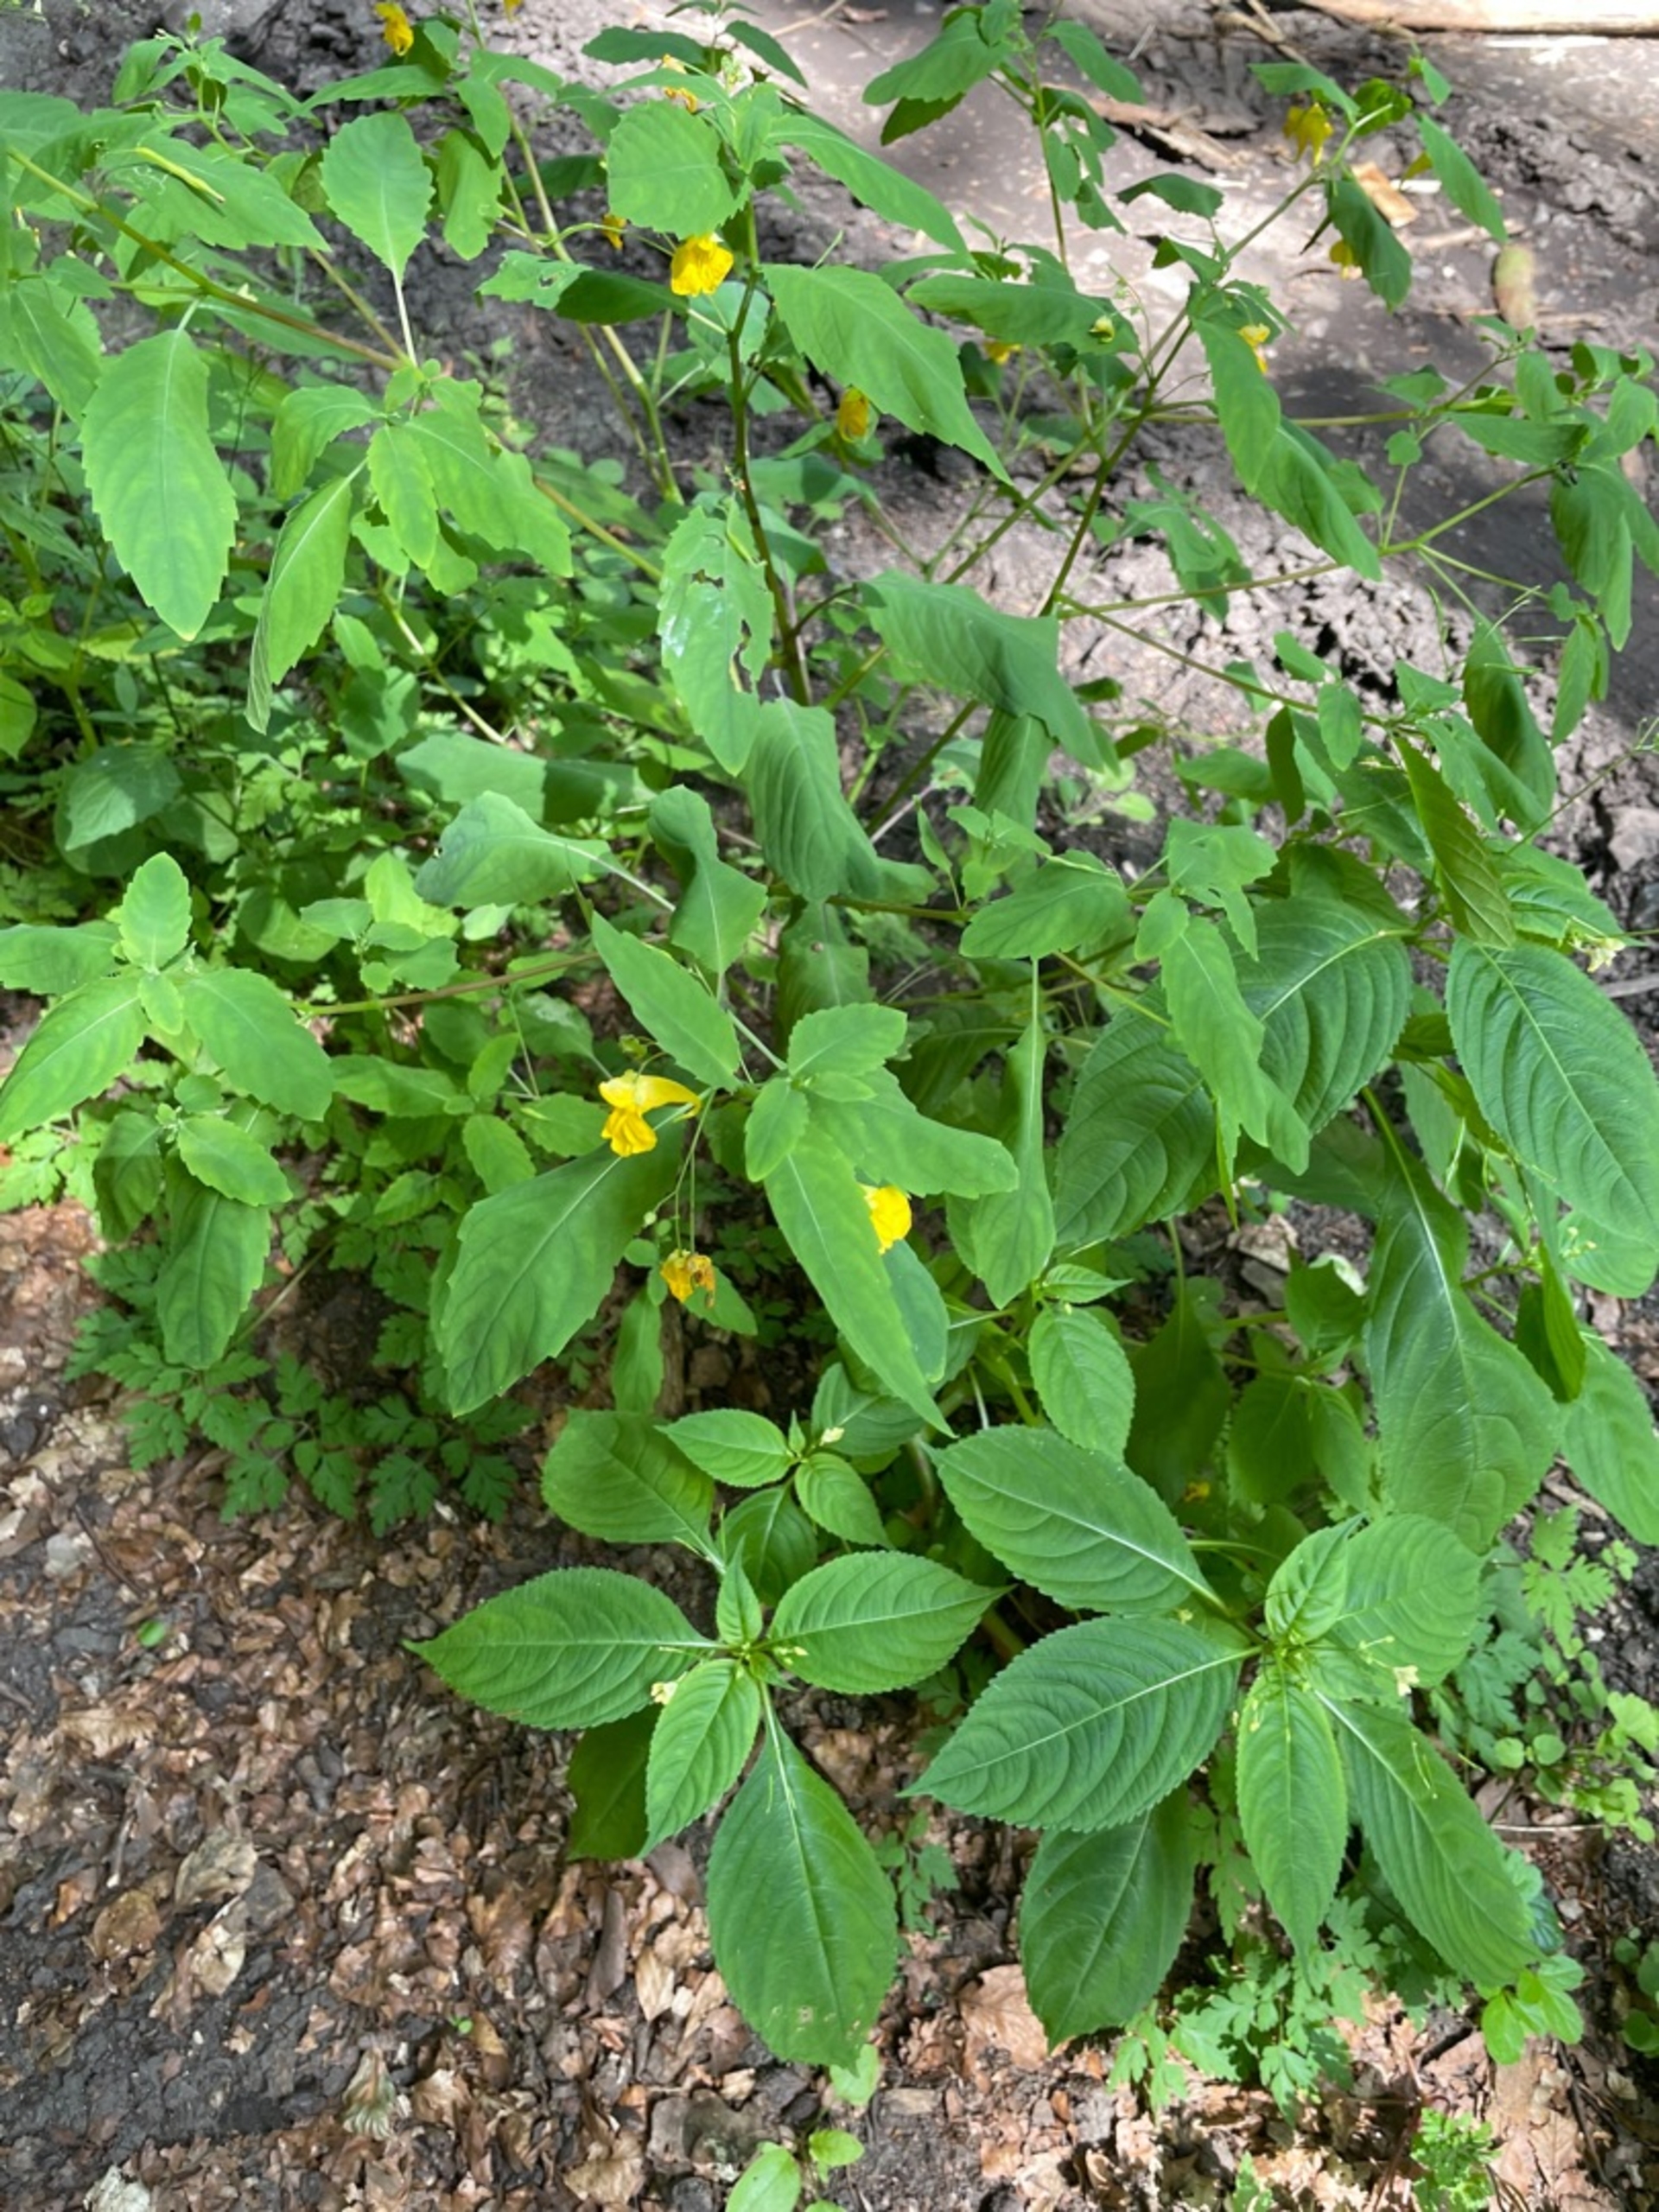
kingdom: Plantae
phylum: Tracheophyta
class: Magnoliopsida
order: Ericales
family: Balsaminaceae
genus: Impatiens
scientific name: Impatiens noli-tangere
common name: Spring-balsamin
